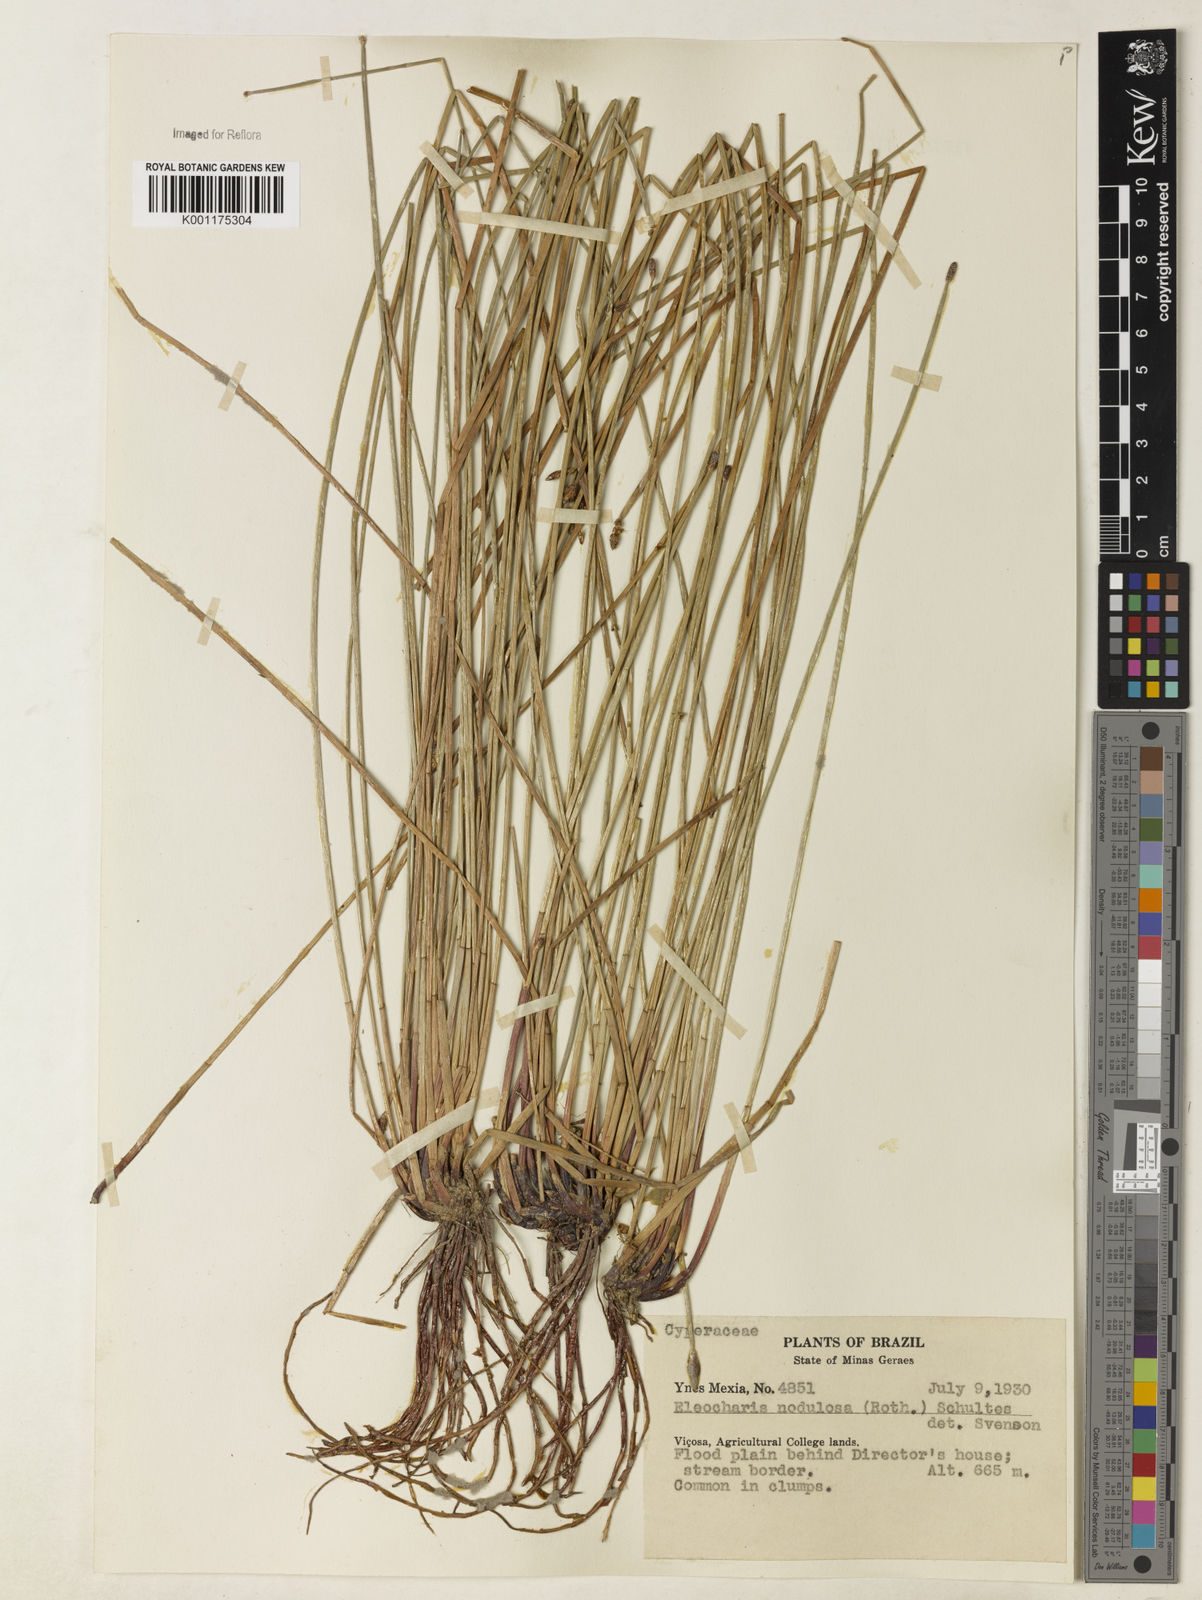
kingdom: Plantae
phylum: Tracheophyta
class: Liliopsida
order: Poales
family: Cyperaceae
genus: Eleocharis
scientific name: Eleocharis montana
